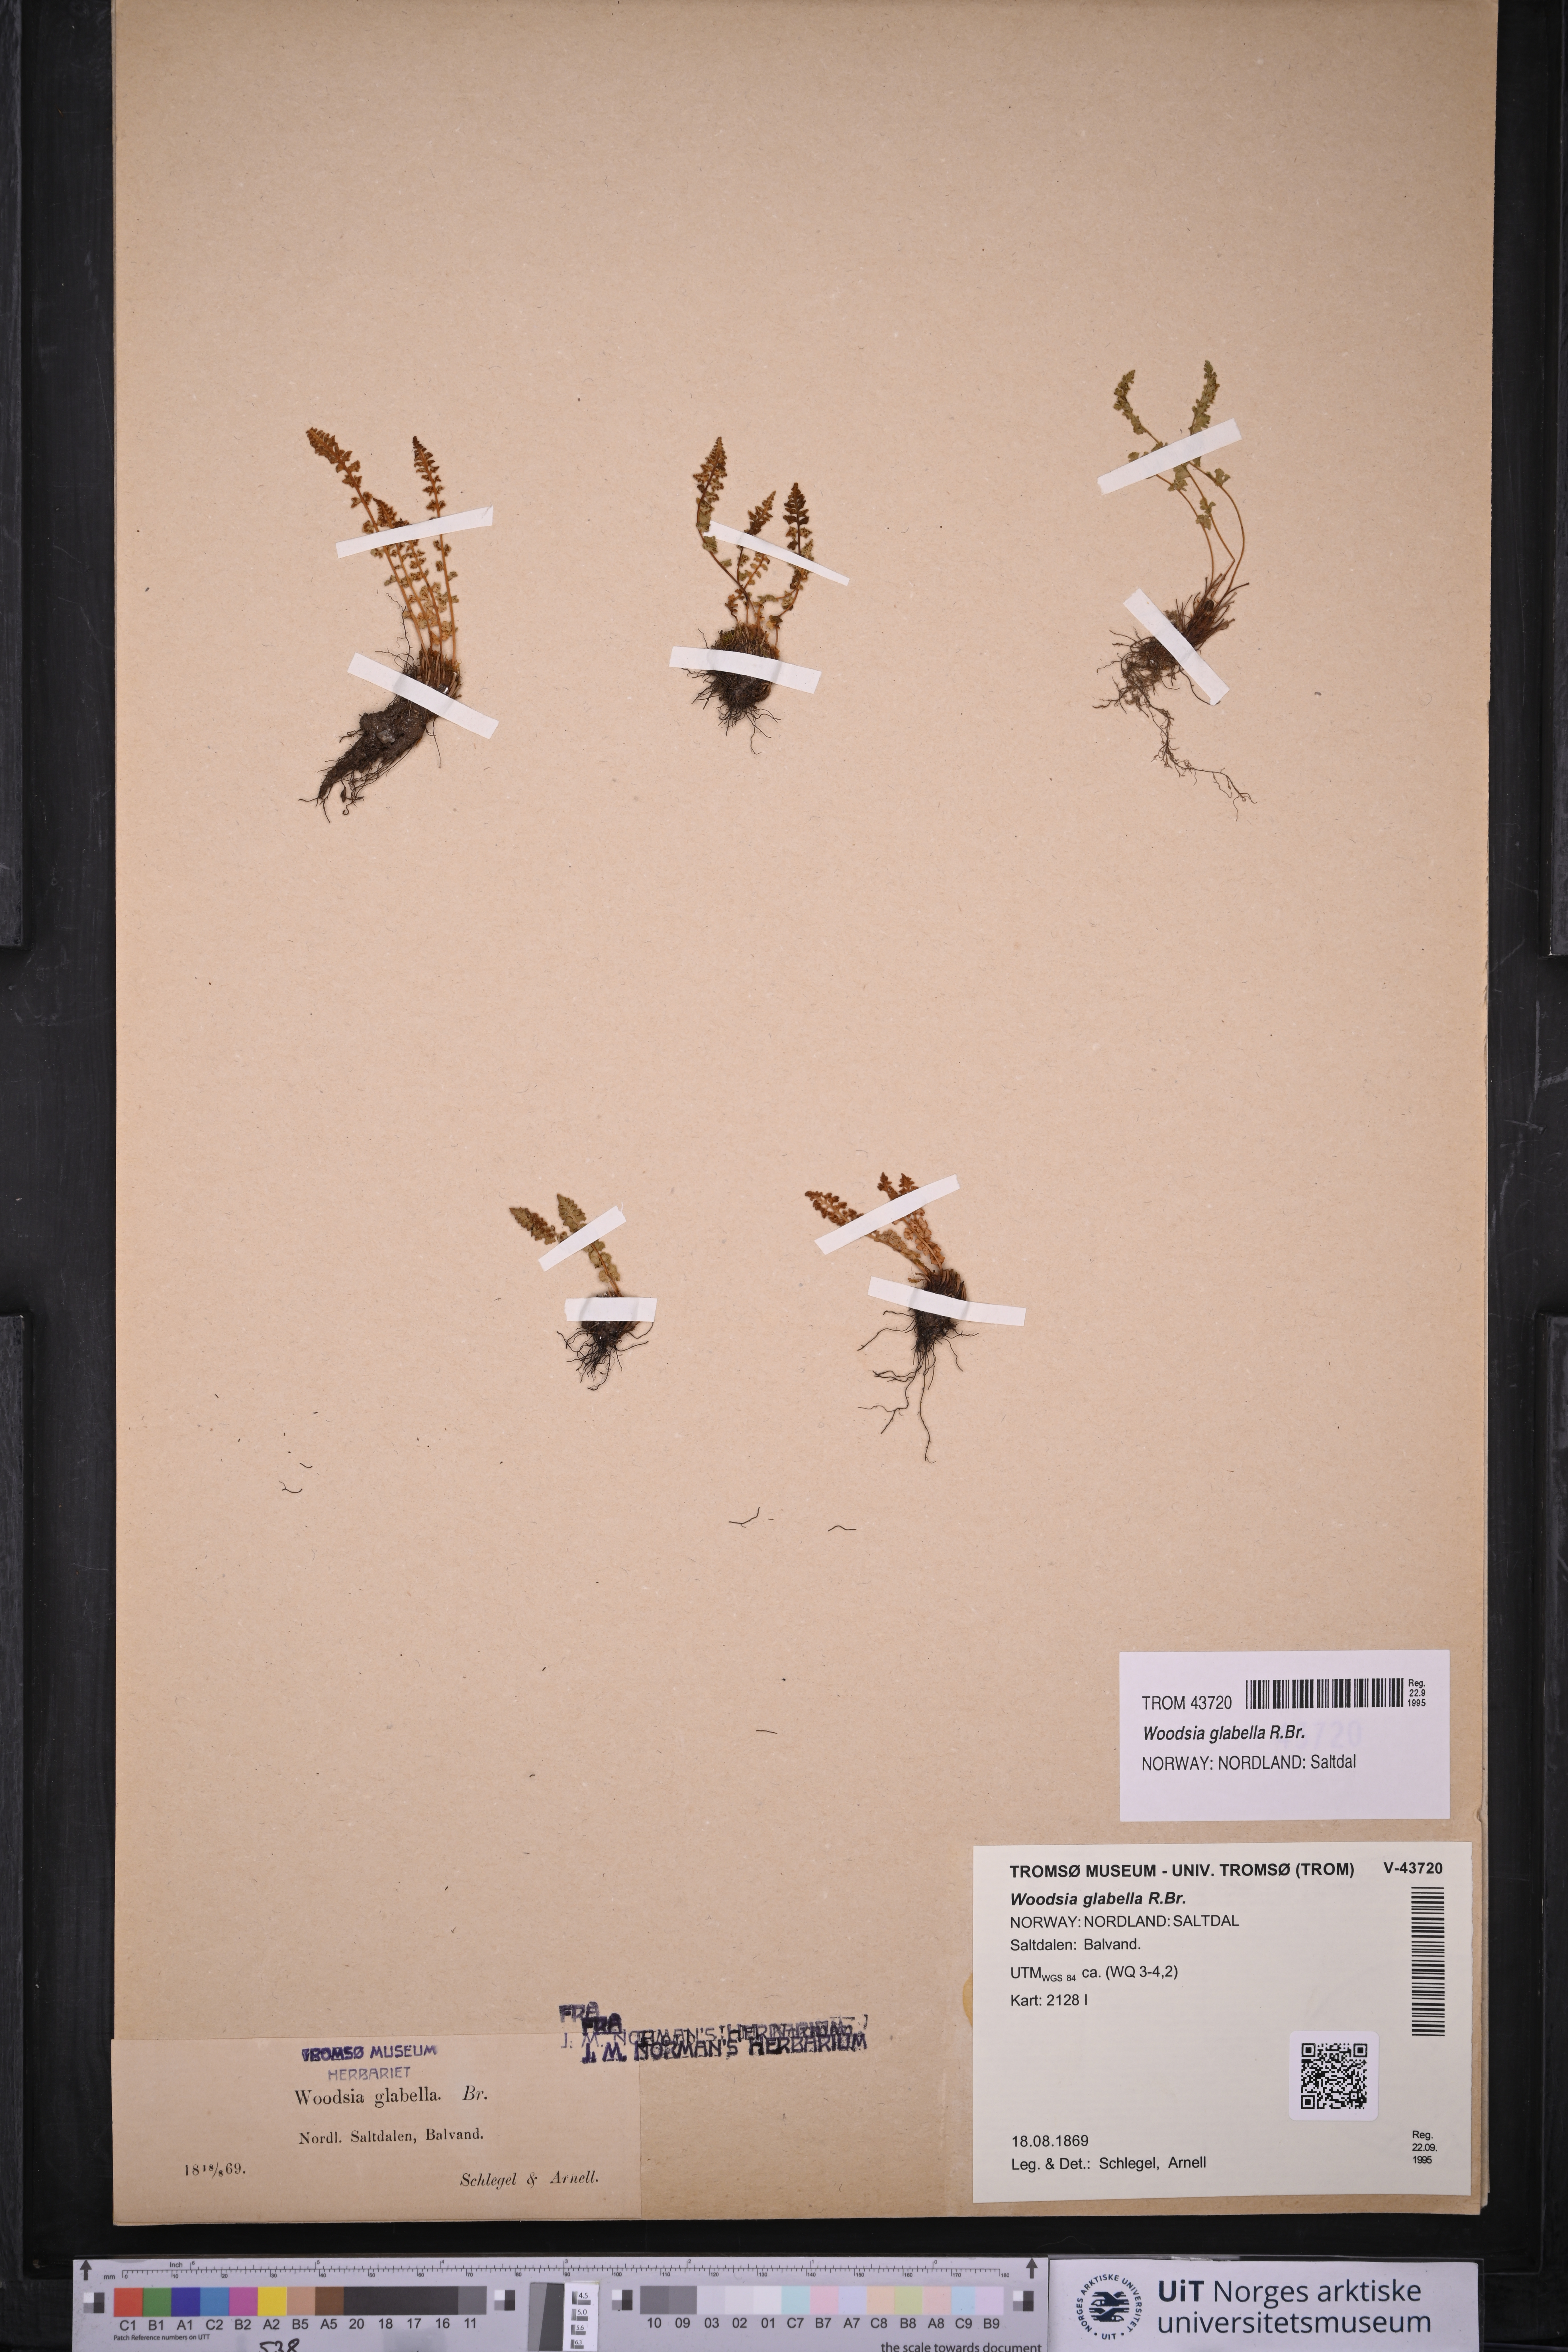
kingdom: Plantae
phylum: Tracheophyta
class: Polypodiopsida
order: Polypodiales
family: Woodsiaceae
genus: Woodsia
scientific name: Woodsia glabella
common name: Smooth woodsia
